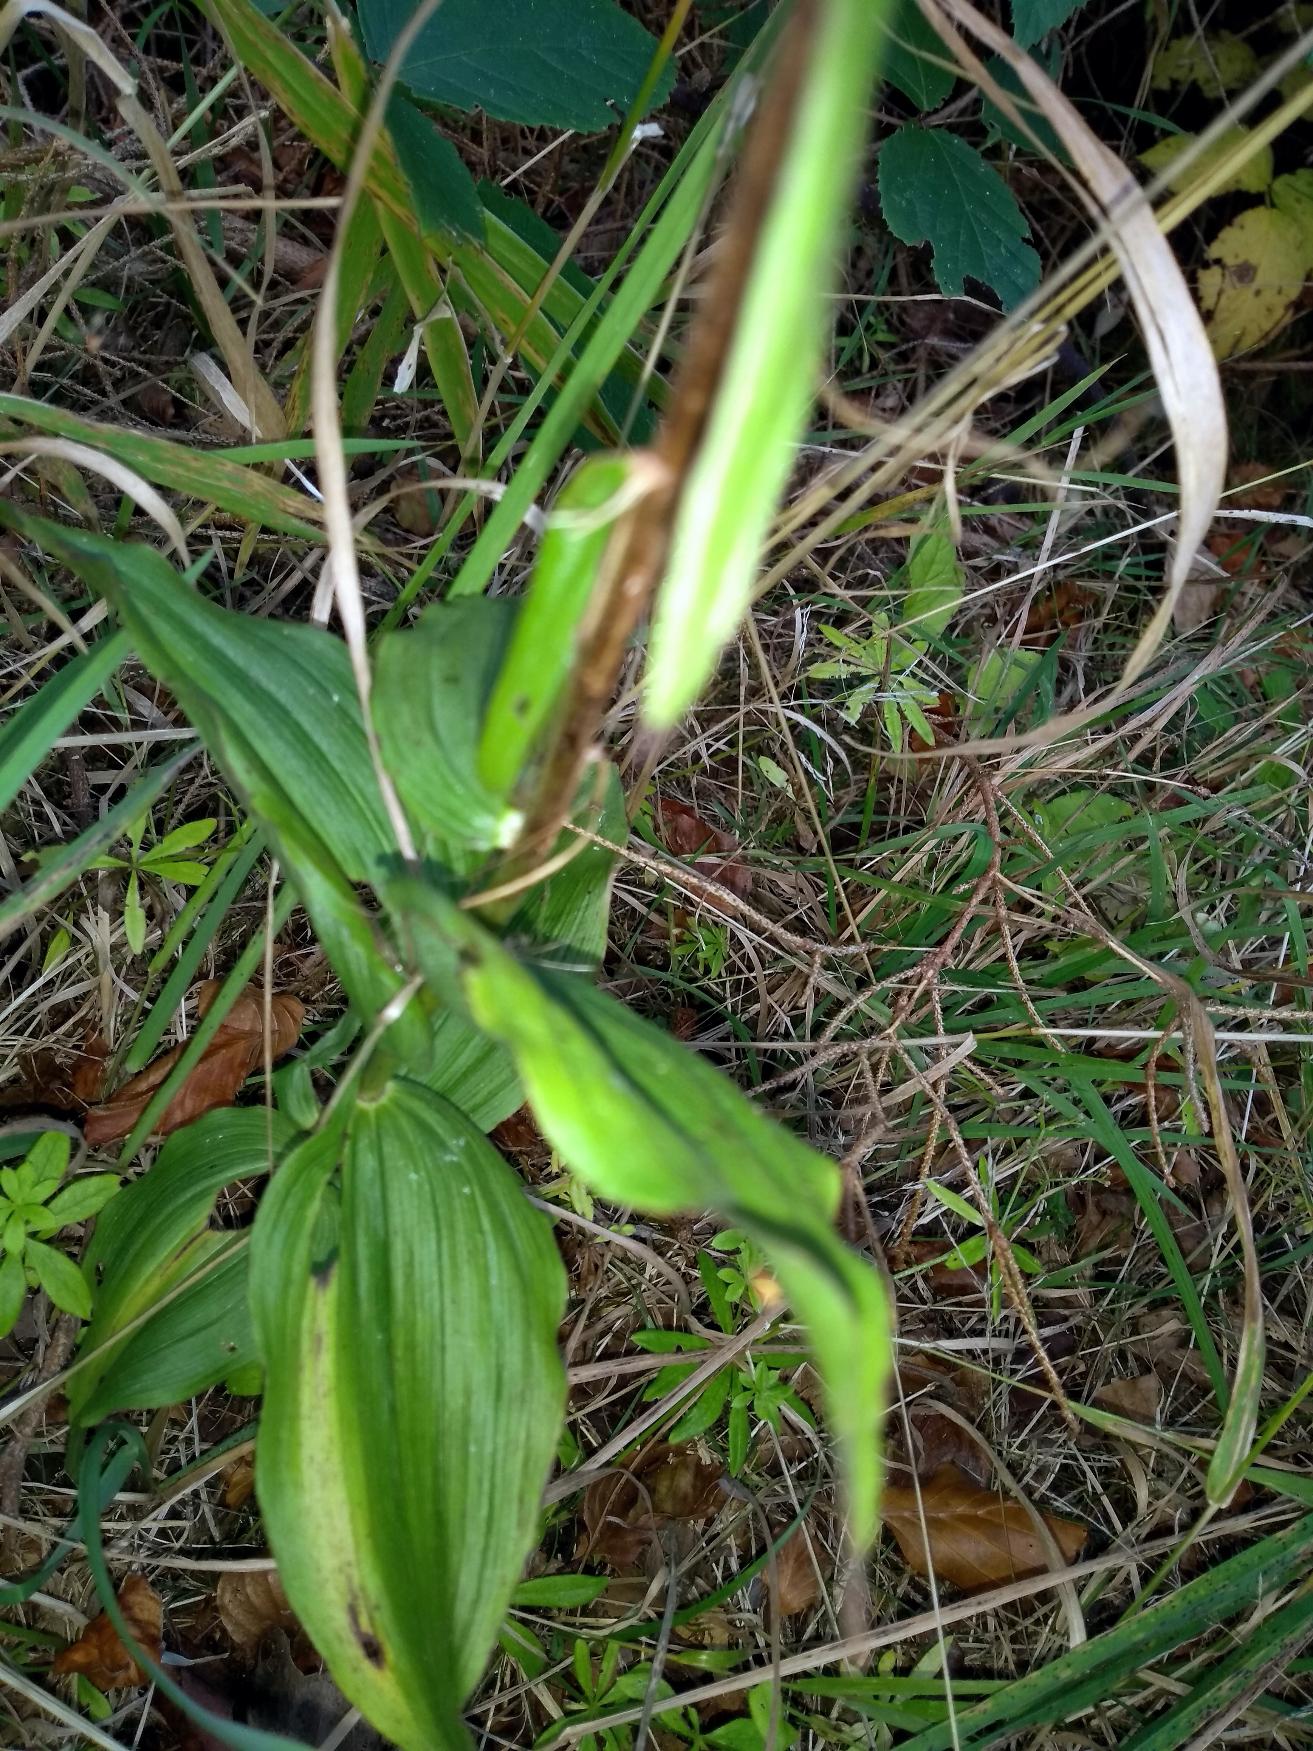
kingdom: Plantae
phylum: Tracheophyta
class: Liliopsida
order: Asparagales
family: Orchidaceae
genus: Epipactis
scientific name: Epipactis helleborine
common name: Skov-hullæbe
